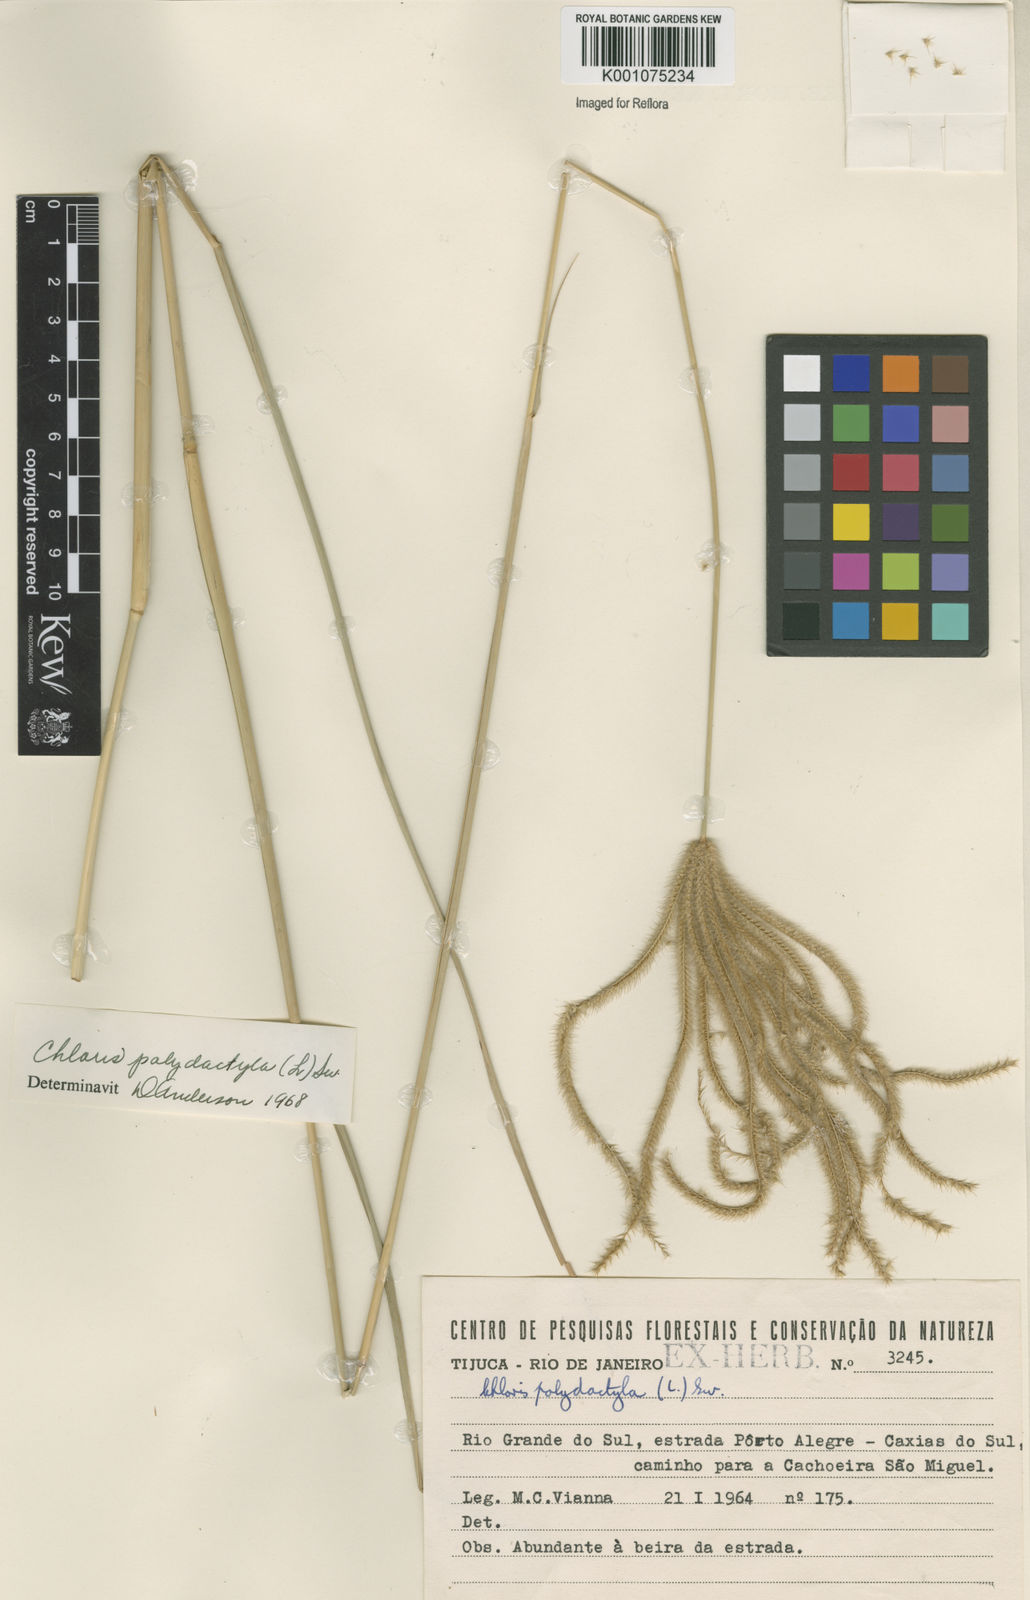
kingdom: Plantae
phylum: Tracheophyta
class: Liliopsida
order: Poales
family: Poaceae
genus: Stapfochloa
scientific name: Stapfochloa elata
